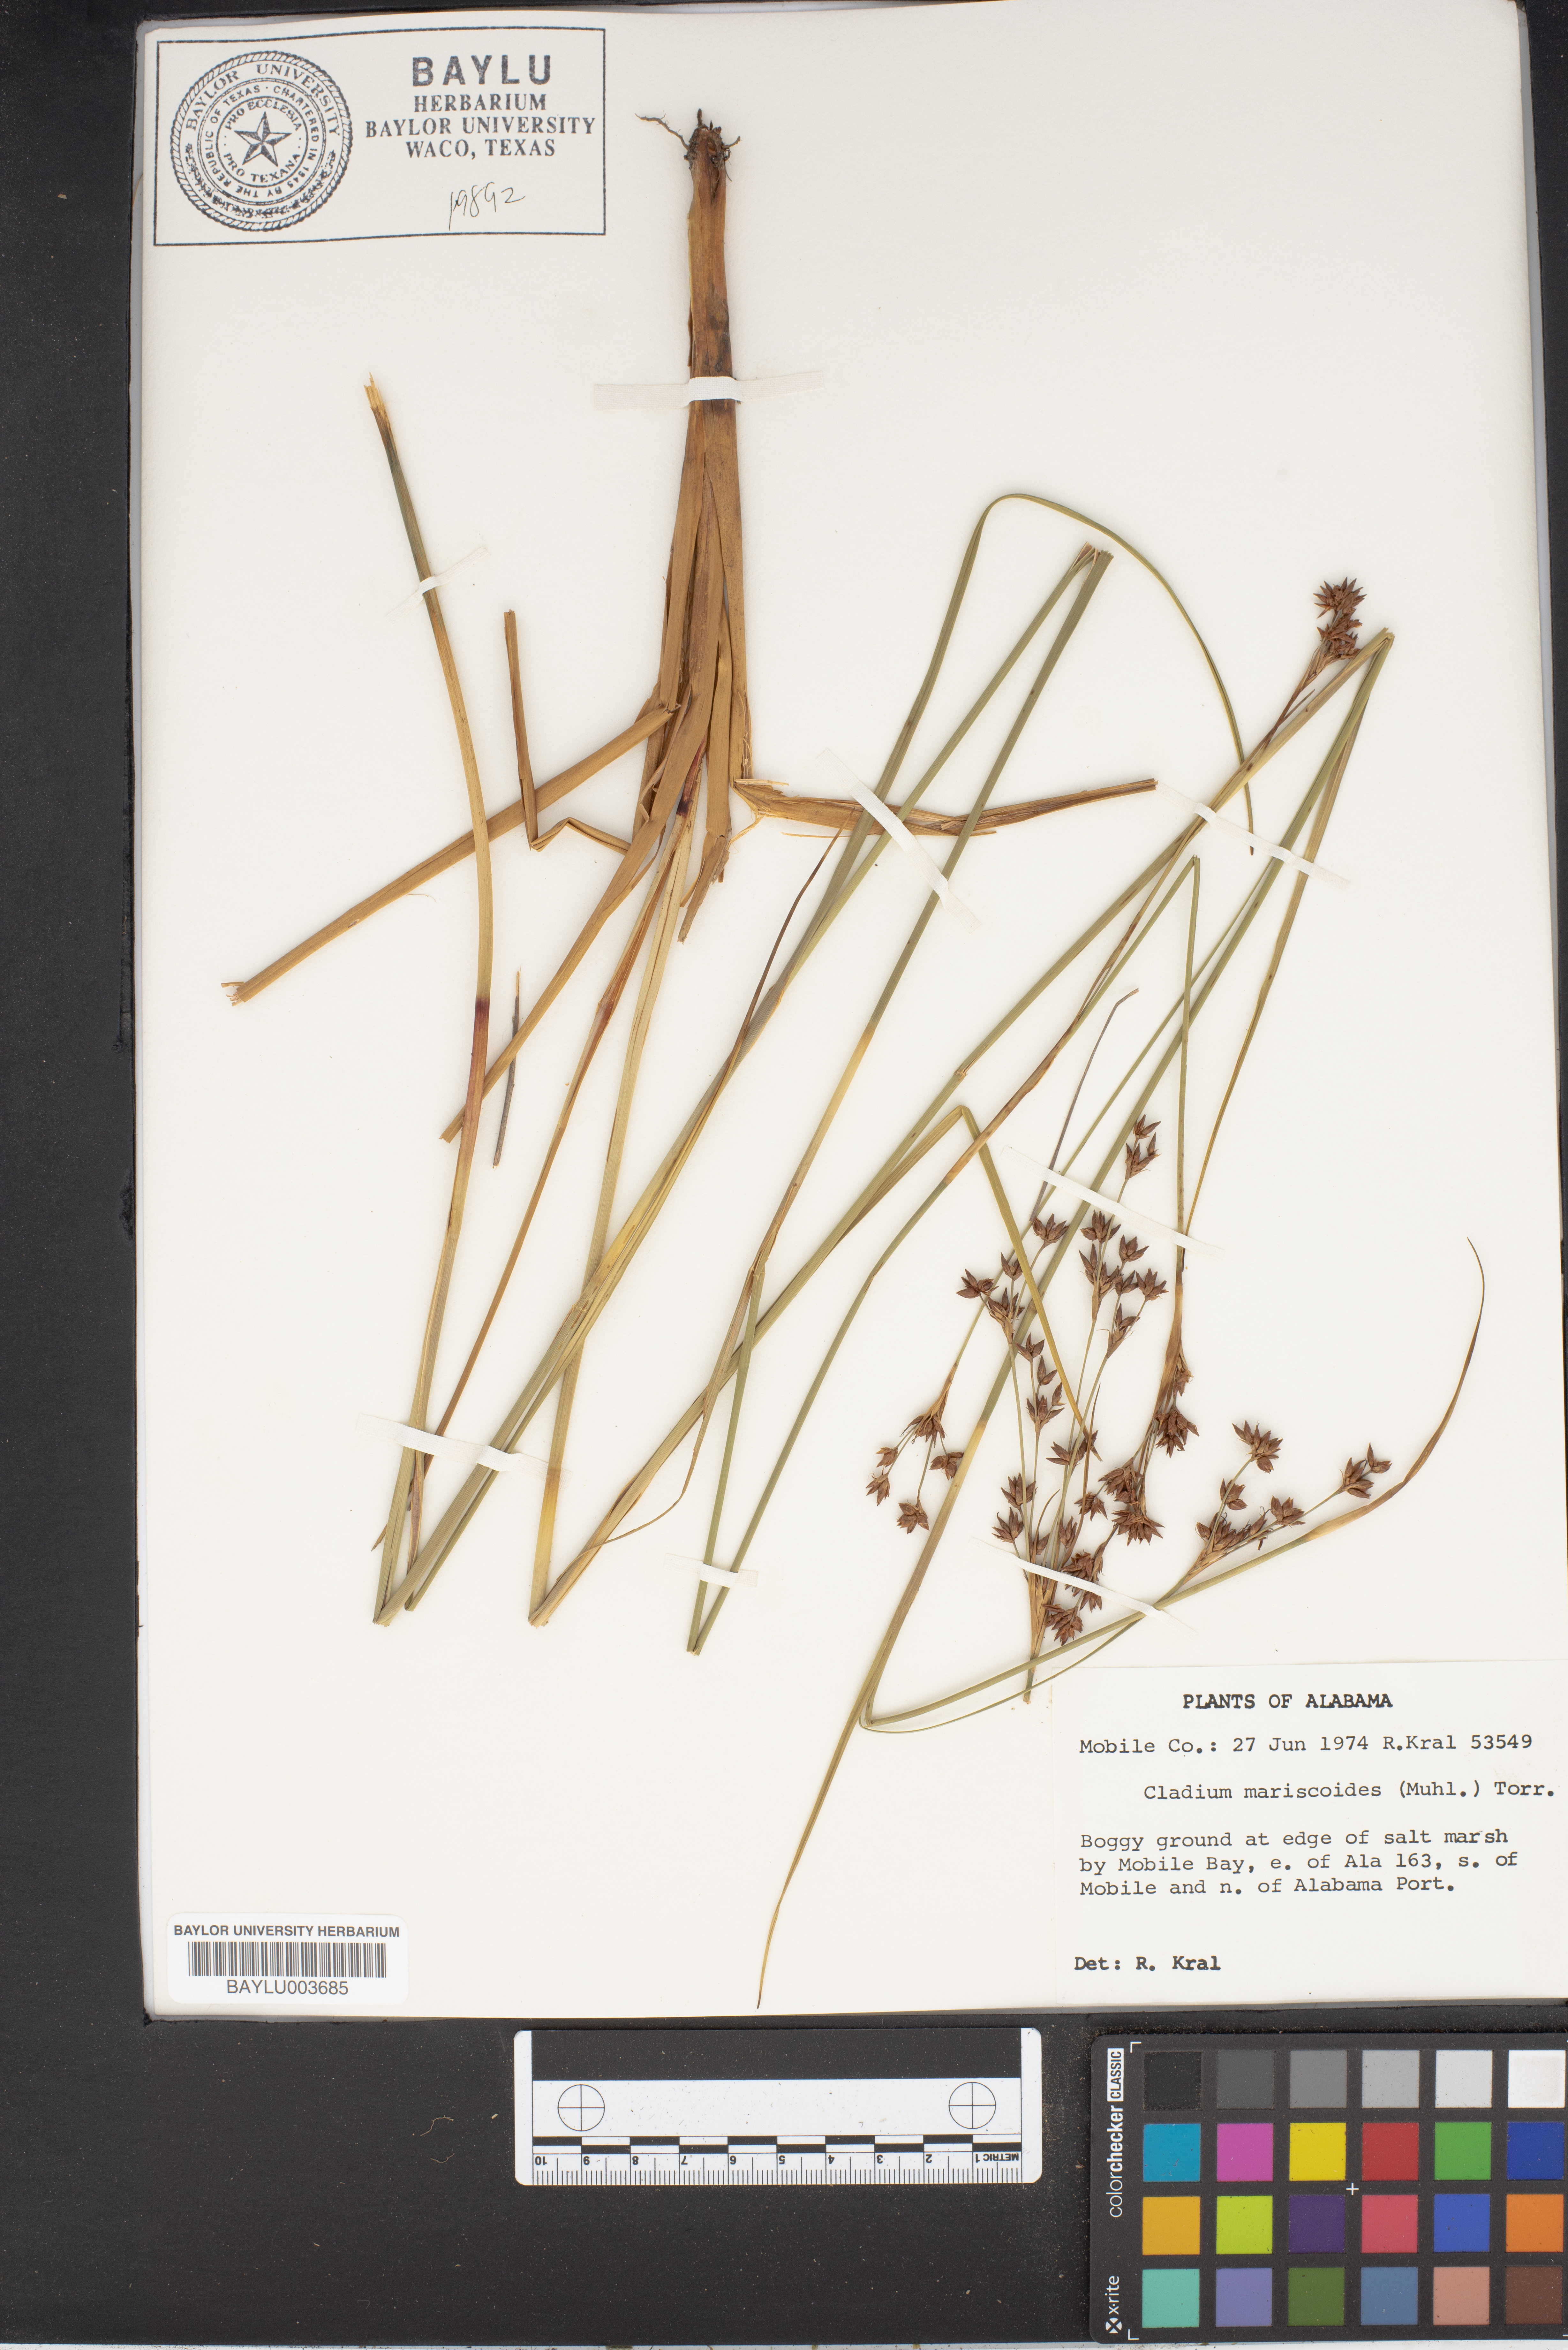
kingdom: Plantae
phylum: Tracheophyta
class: Liliopsida
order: Poales
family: Cyperaceae
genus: Cladium
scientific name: Cladium mariscoides
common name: Smooth sawgrass
